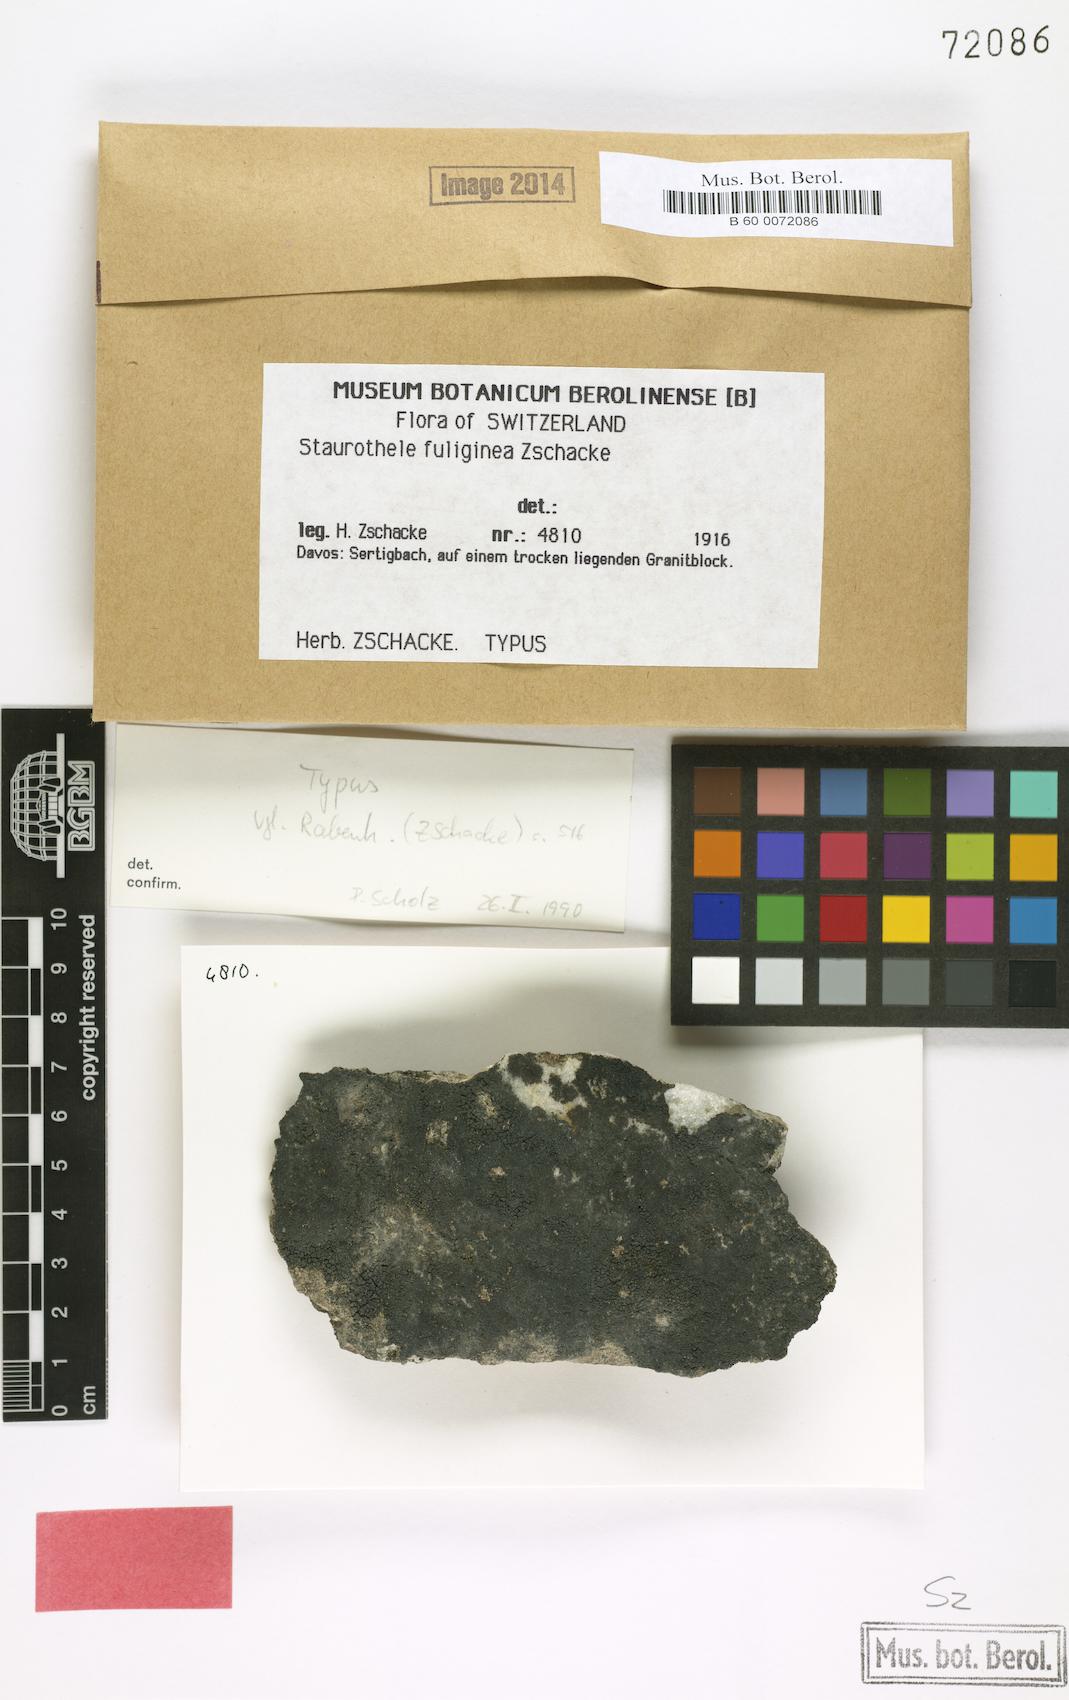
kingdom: Fungi
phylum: Ascomycota
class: Eurotiomycetes
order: Verrucariales
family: Verrucariaceae
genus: Staurothele
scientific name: Staurothele fuliginea
